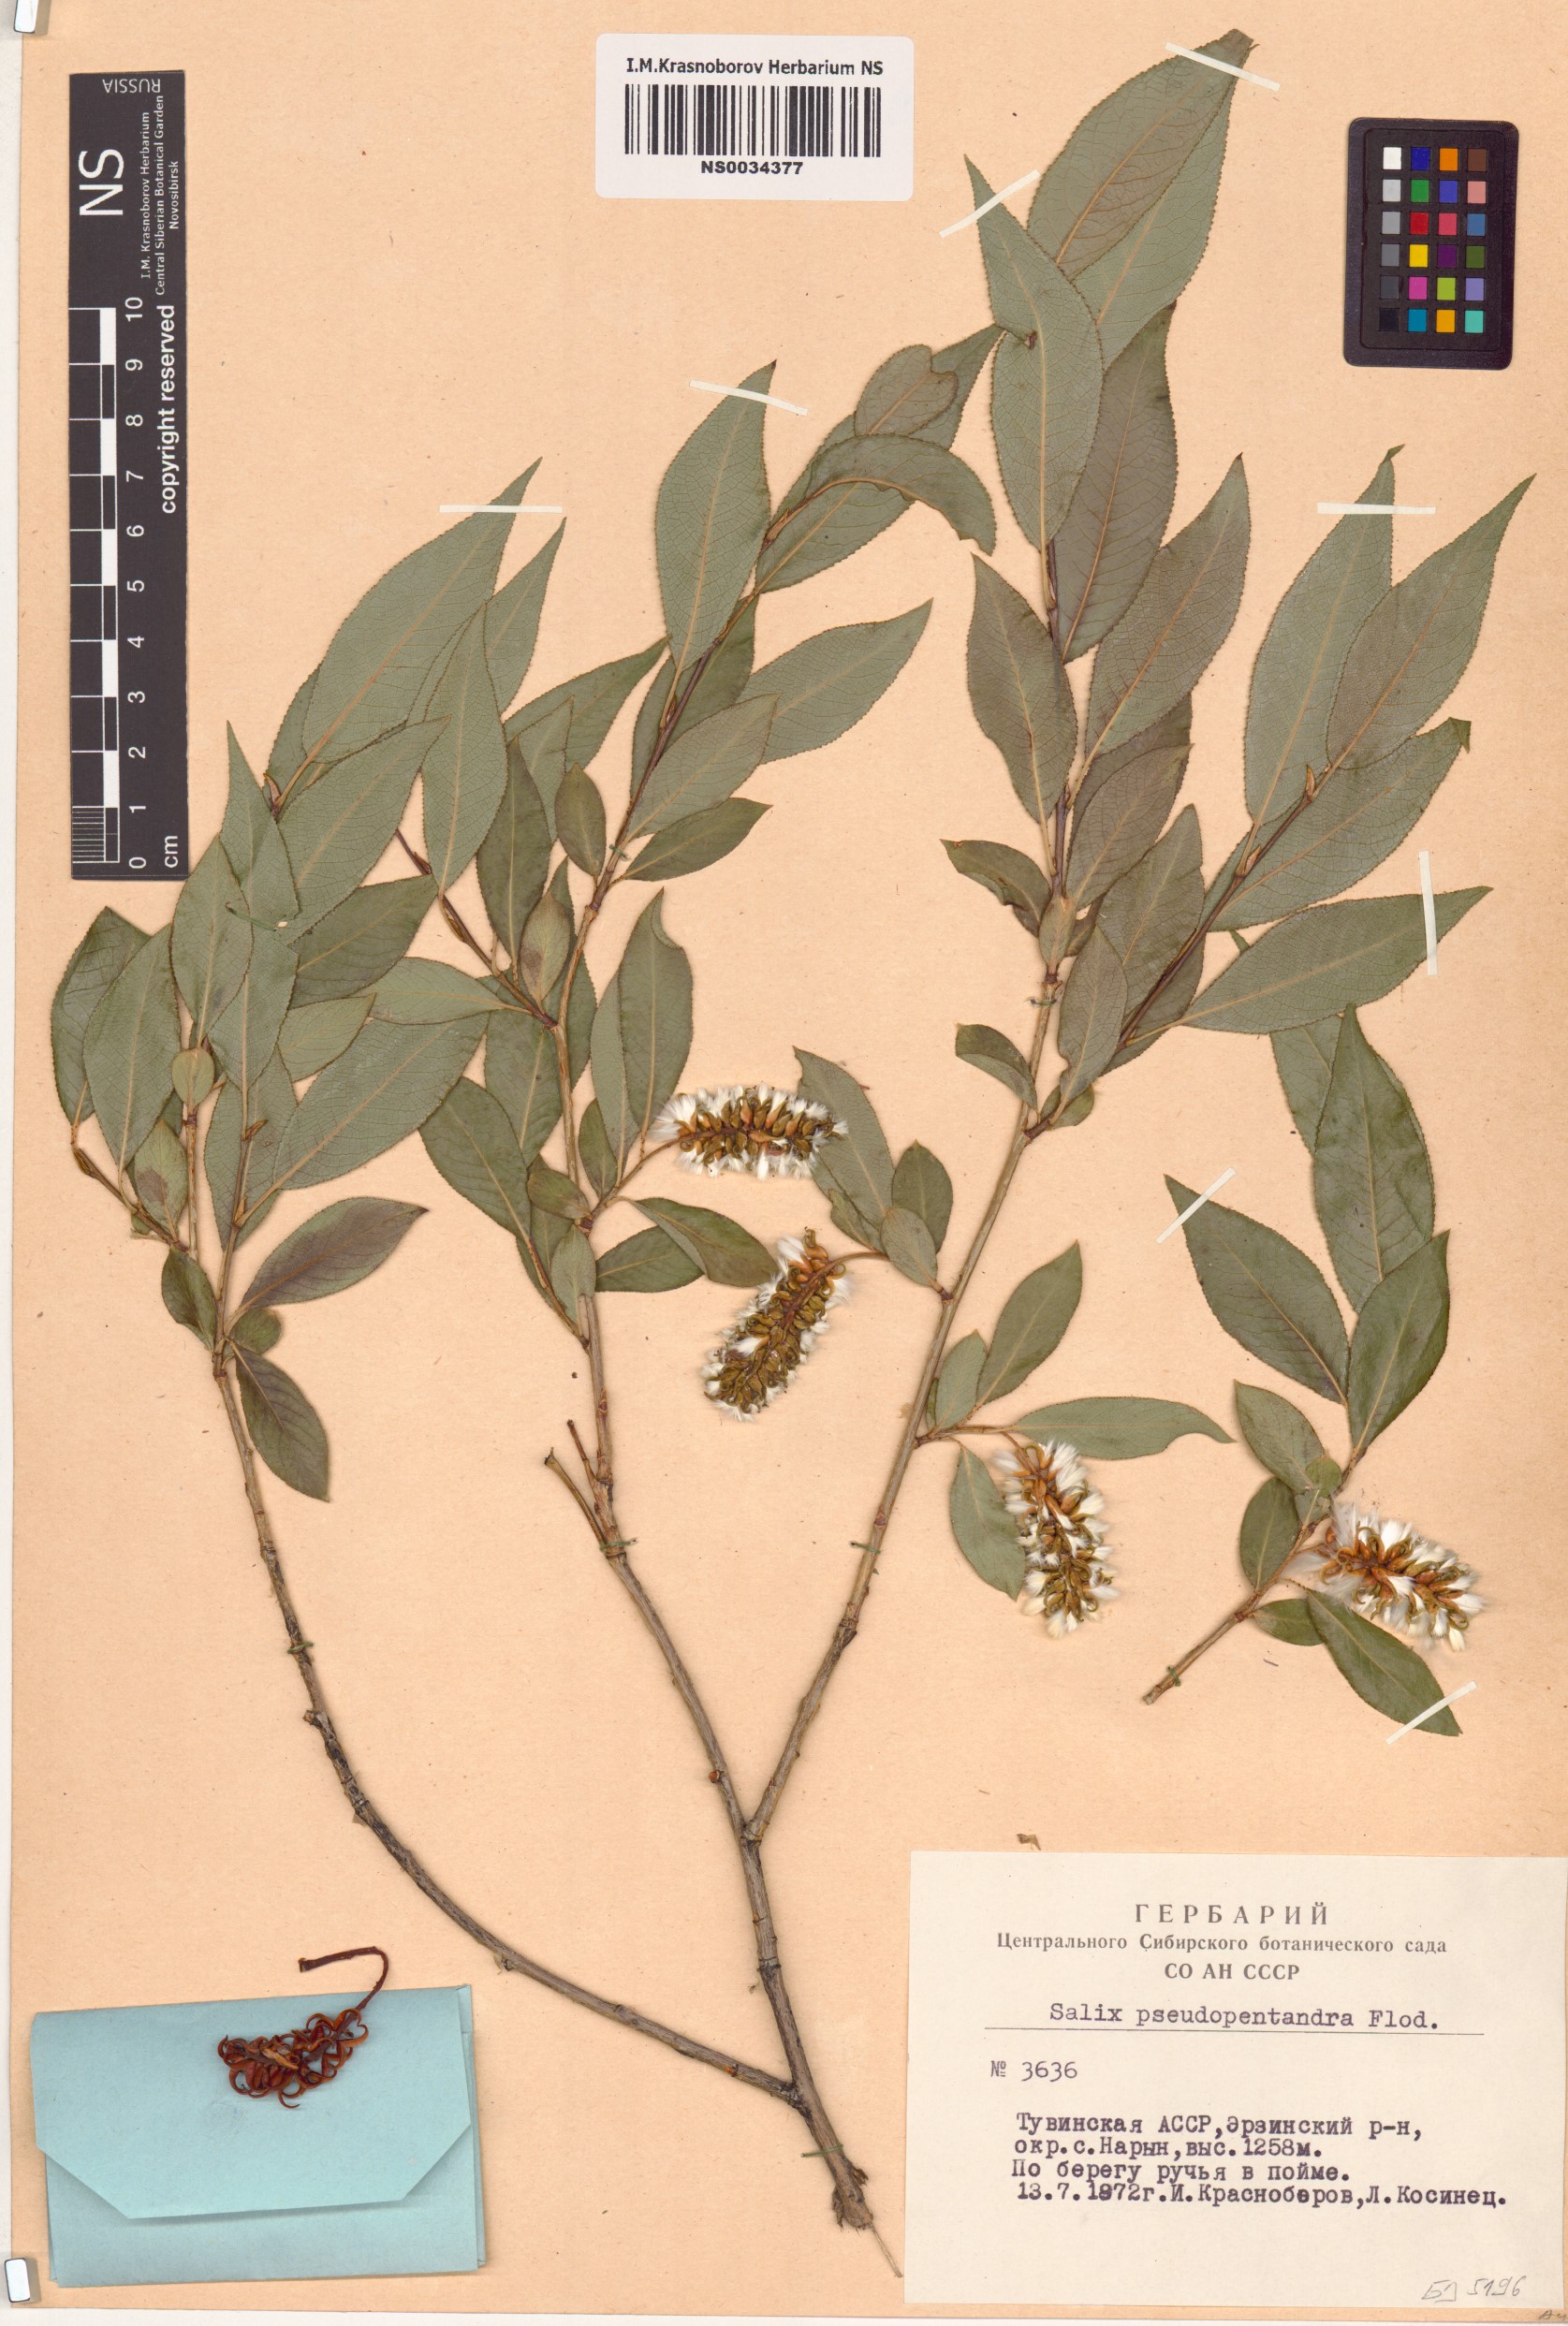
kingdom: Plantae
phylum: Tracheophyta
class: Magnoliopsida
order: Malpighiales
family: Salicaceae
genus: Salix
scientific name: Salix pseudopentandra
